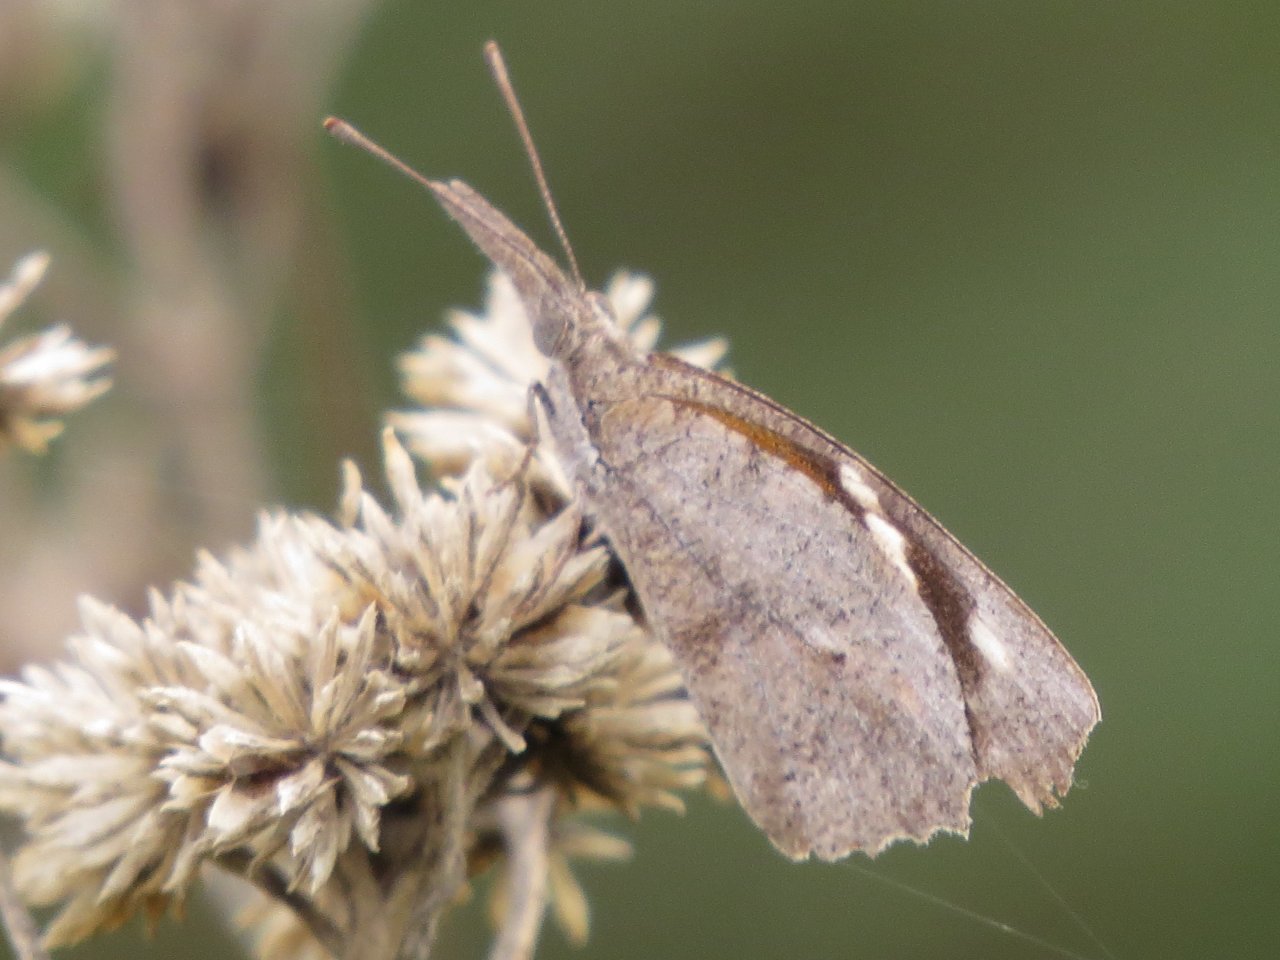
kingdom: Animalia
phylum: Arthropoda
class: Insecta
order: Lepidoptera
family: Nymphalidae
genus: Libytheana
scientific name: Libytheana carinenta
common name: American Snout
